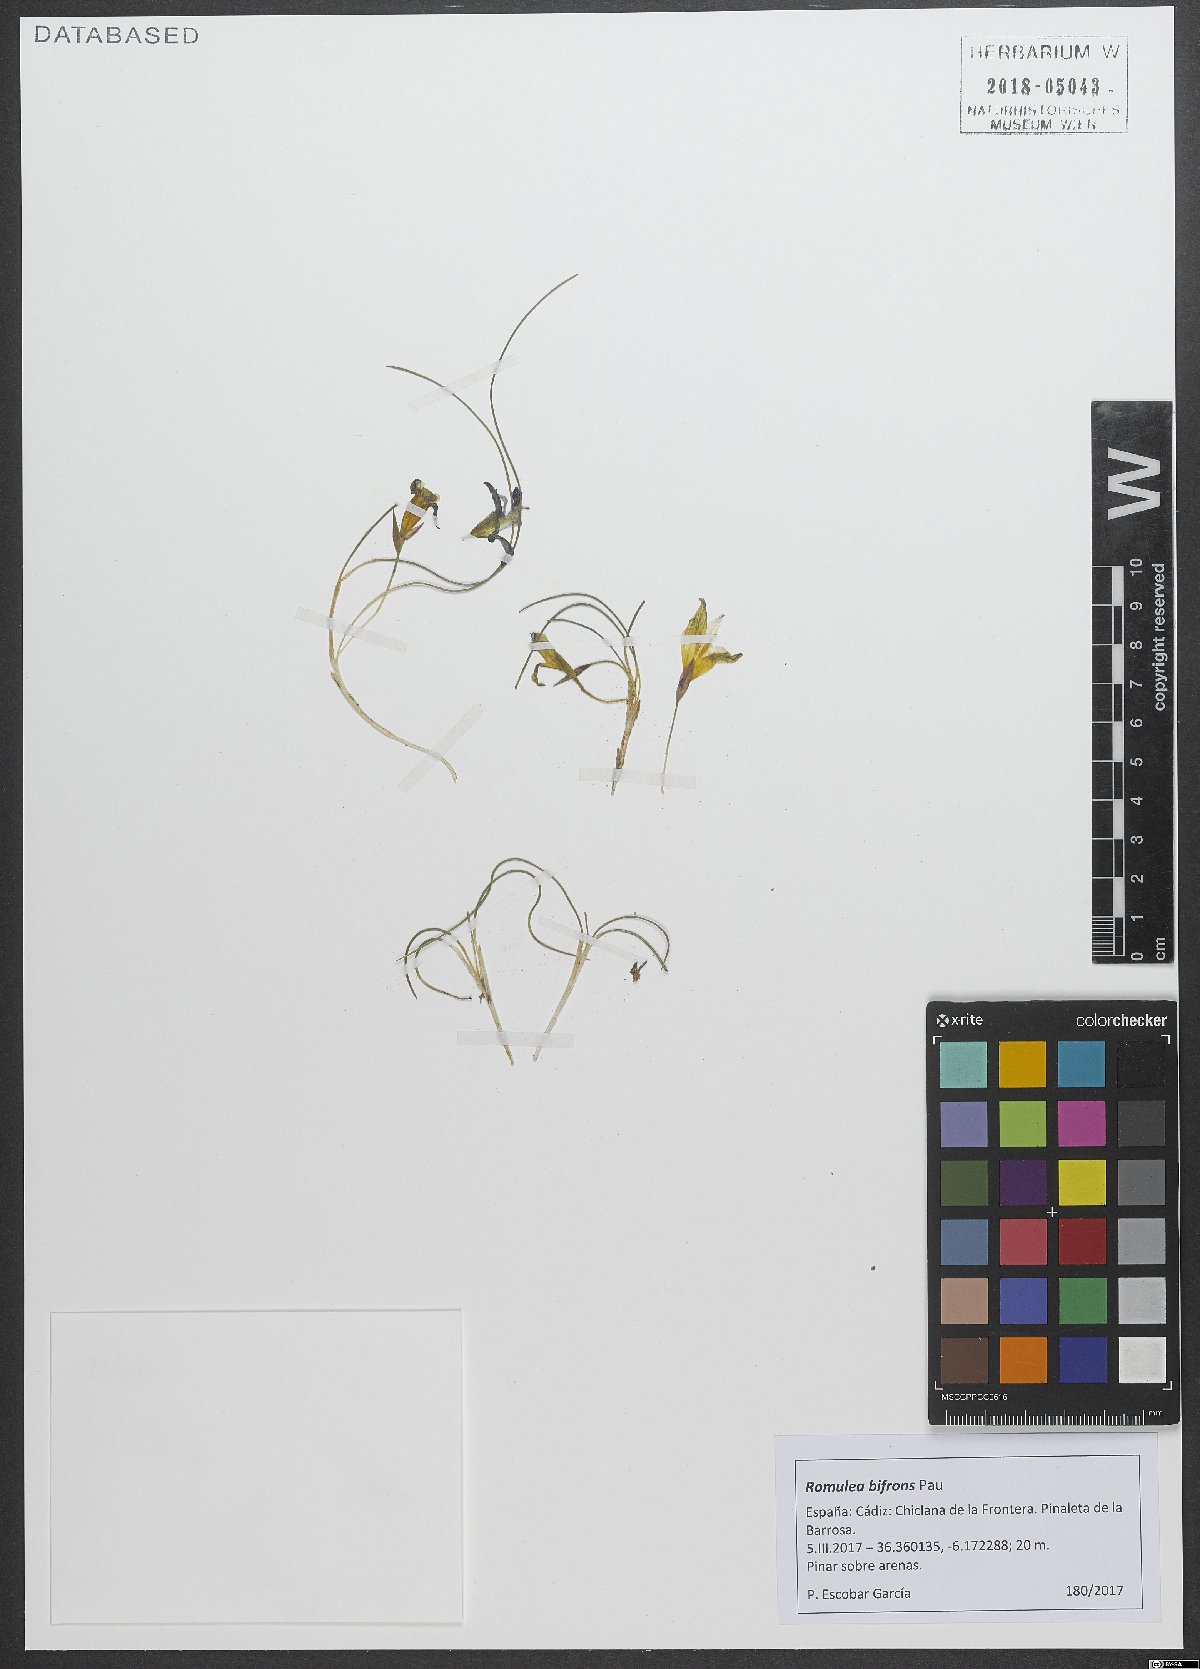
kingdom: Plantae
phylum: Tracheophyta
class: Liliopsida
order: Asparagales
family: Iridaceae
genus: Romulea
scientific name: Romulea ramiflora
